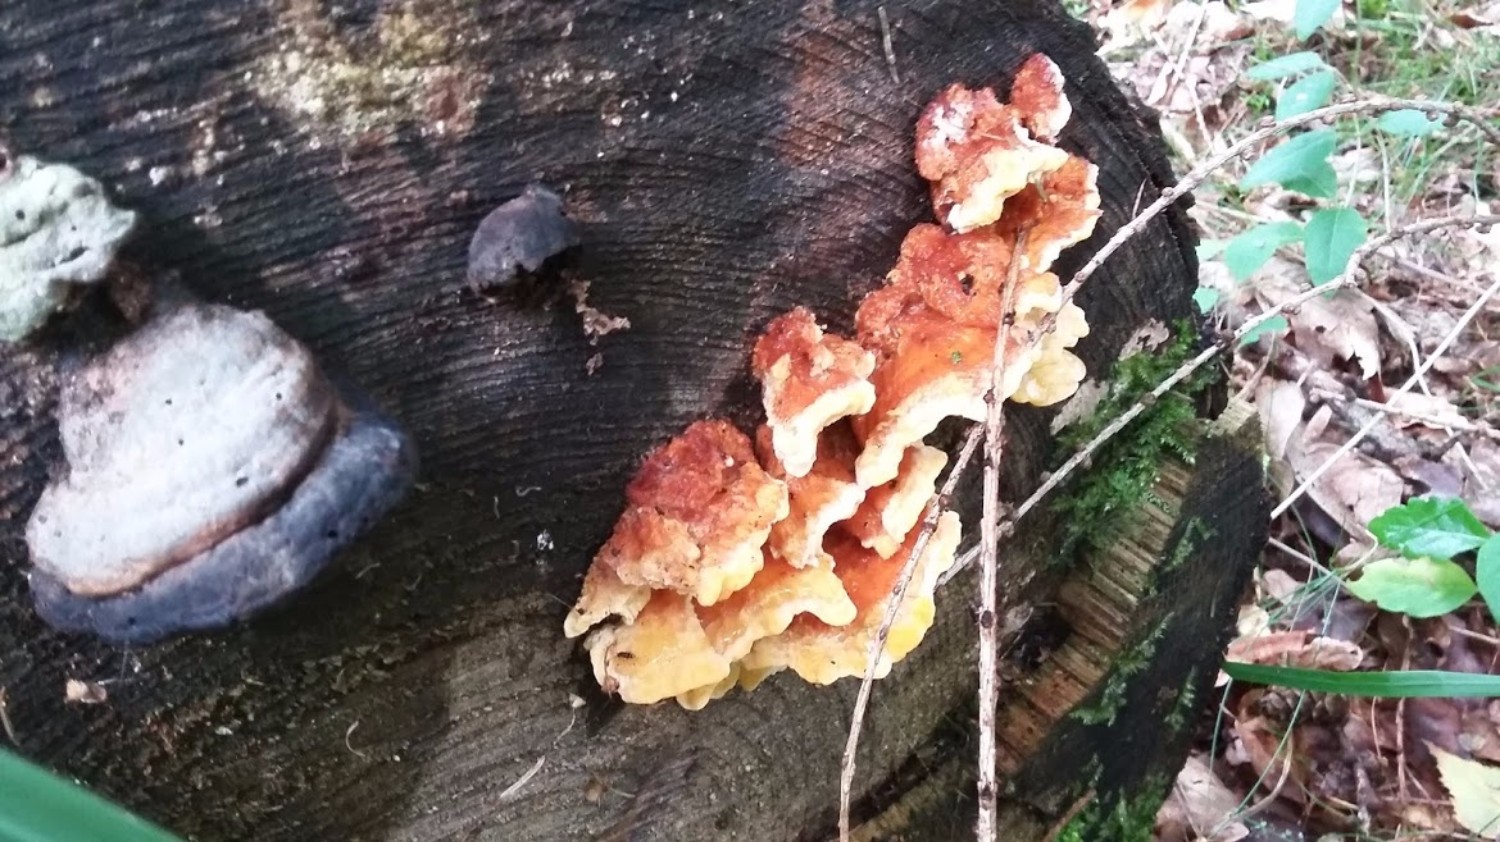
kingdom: Fungi
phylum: Basidiomycota
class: Agaricomycetes
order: Polyporales
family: Pycnoporellaceae
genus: Pycnoporellus
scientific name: Pycnoporellus fulgens
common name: flammeporesvamp
